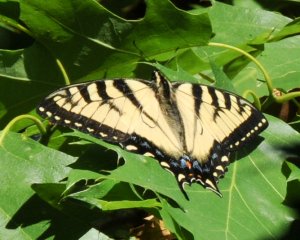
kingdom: Animalia
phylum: Arthropoda
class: Insecta
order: Lepidoptera
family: Papilionidae
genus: Pterourus
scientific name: Pterourus glaucus
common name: Eastern Tiger Swallowtail
